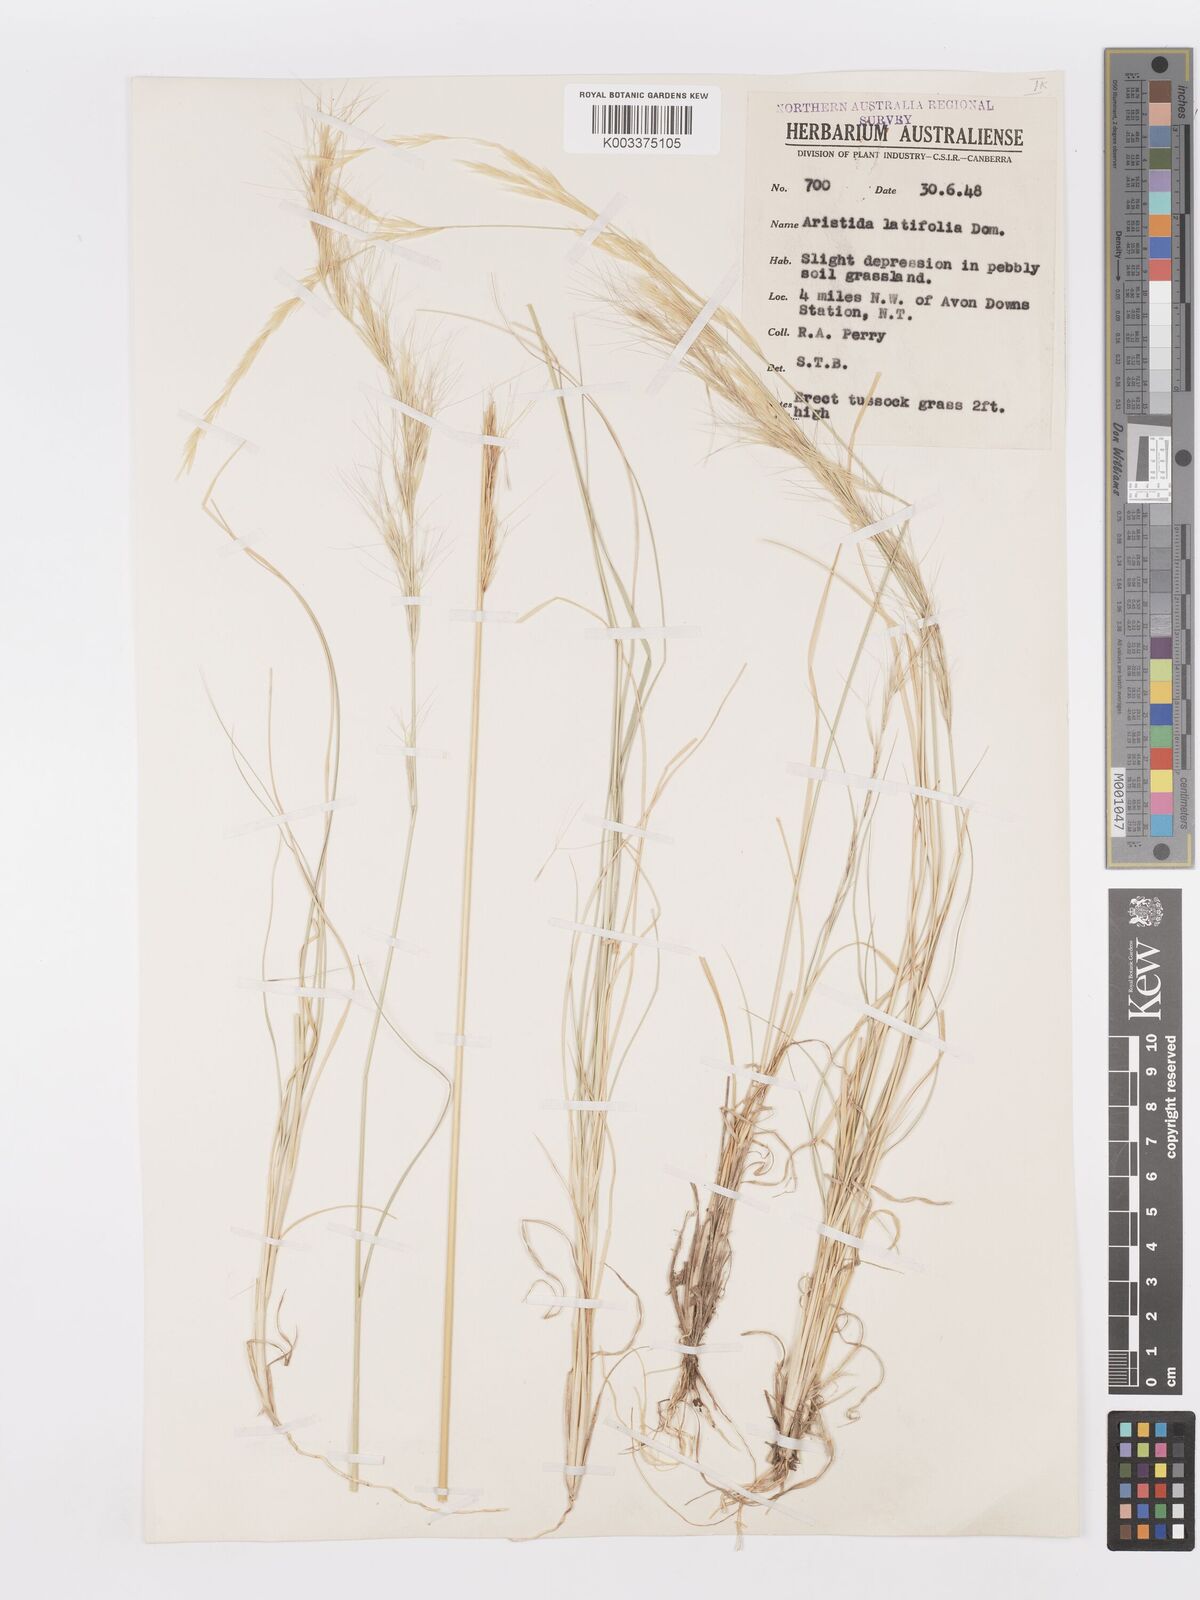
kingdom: Plantae
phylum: Tracheophyta
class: Liliopsida
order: Poales
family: Poaceae
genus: Aristida
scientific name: Aristida latifolia
